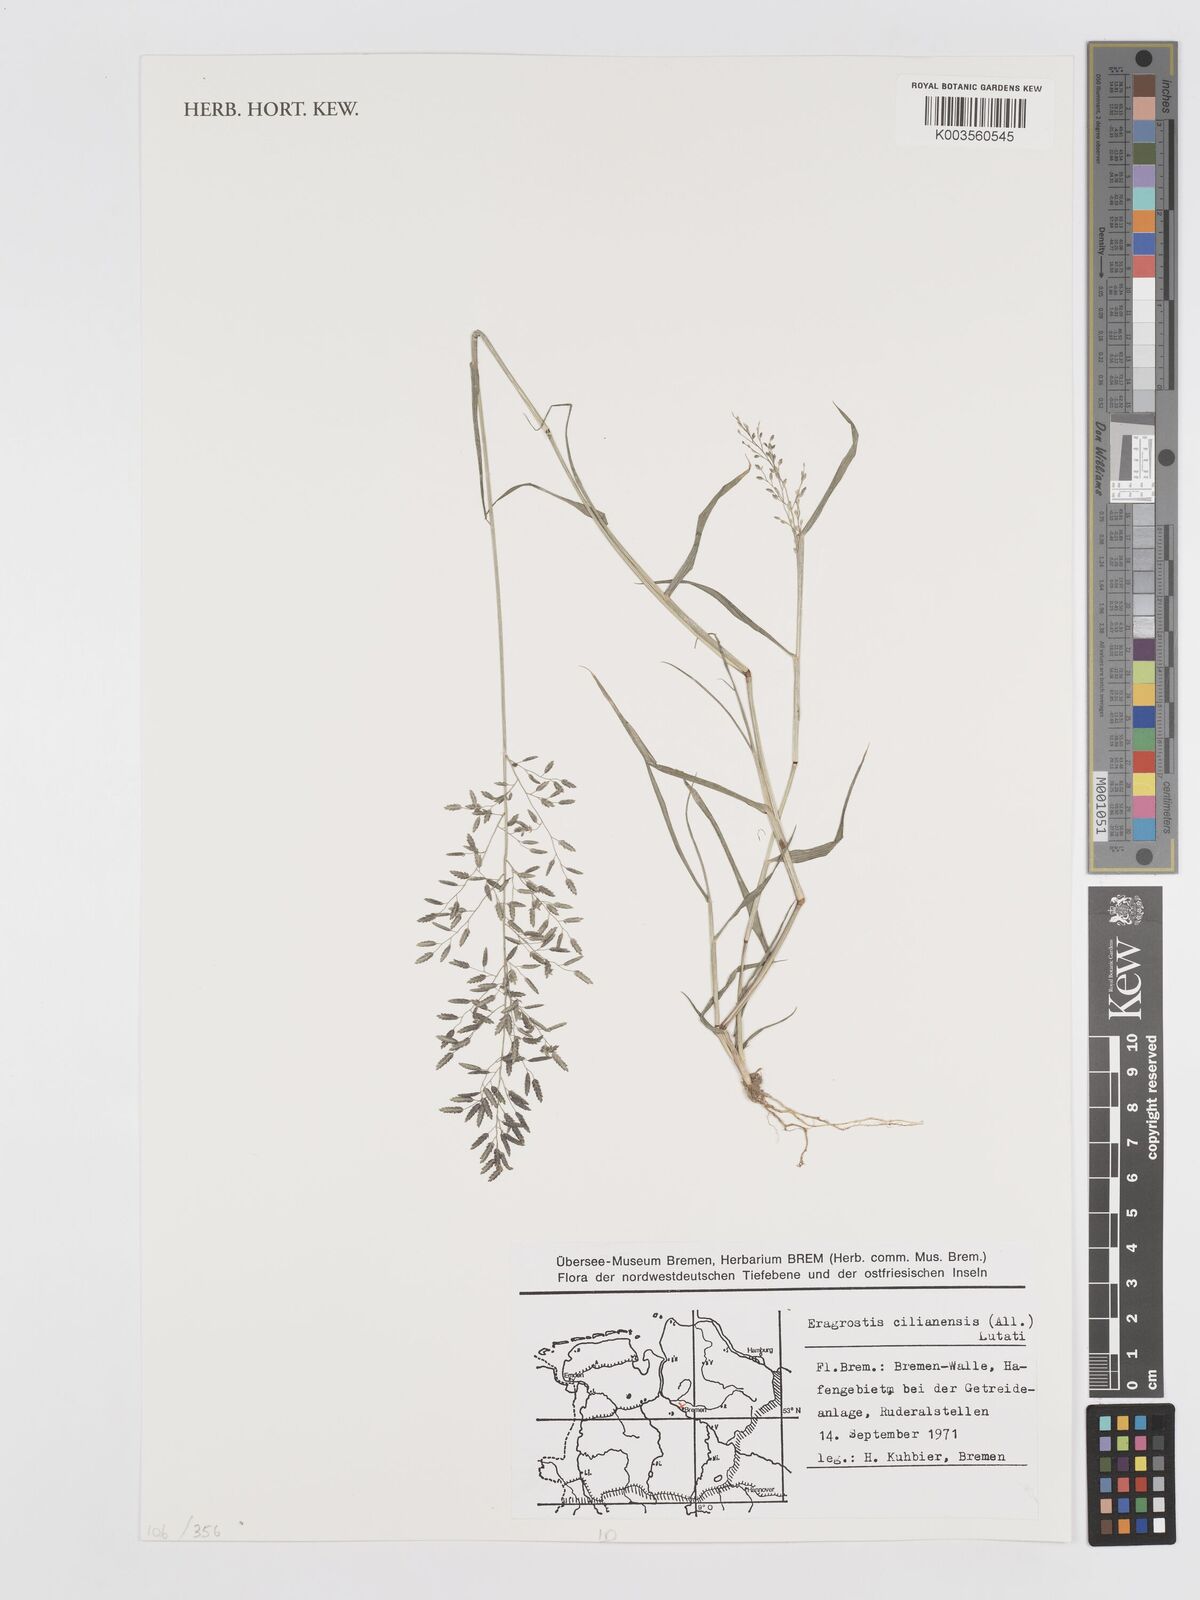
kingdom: Plantae
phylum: Tracheophyta
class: Liliopsida
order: Poales
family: Poaceae
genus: Eragrostis
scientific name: Eragrostis cilianensis
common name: Stinkgrass
